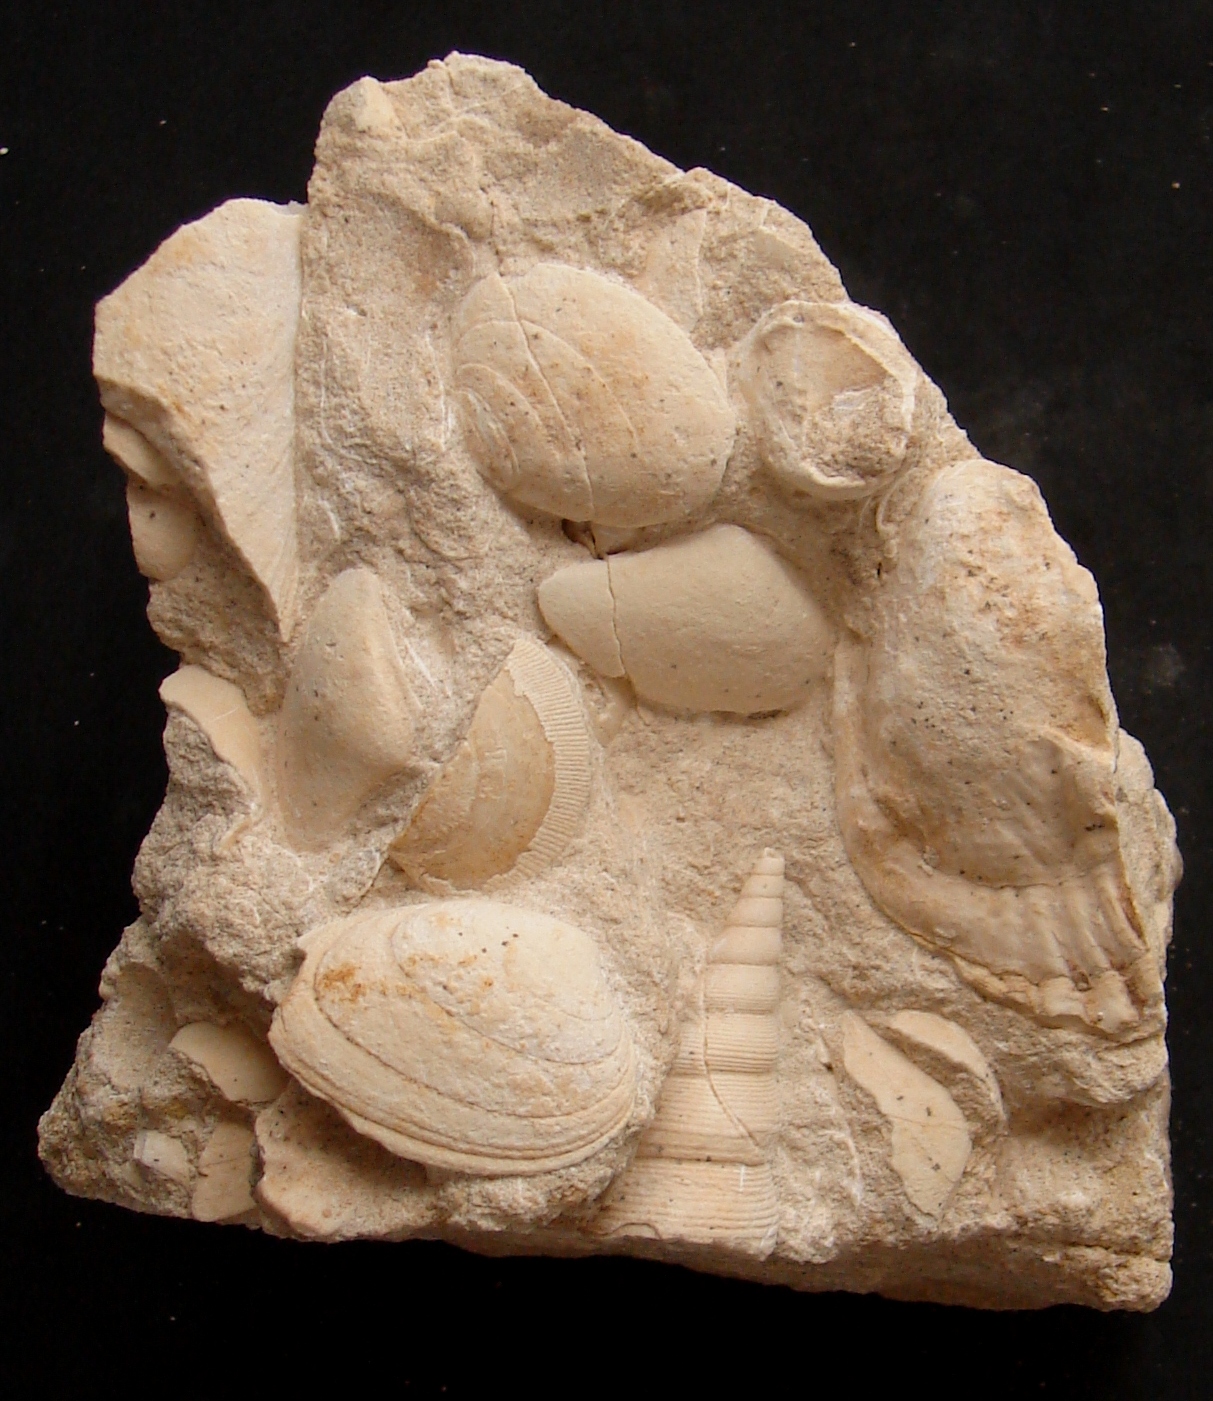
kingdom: Animalia
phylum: Mollusca
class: Bivalvia
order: Carditida
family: Cardiniidae
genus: Cardinia
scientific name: Cardinia
